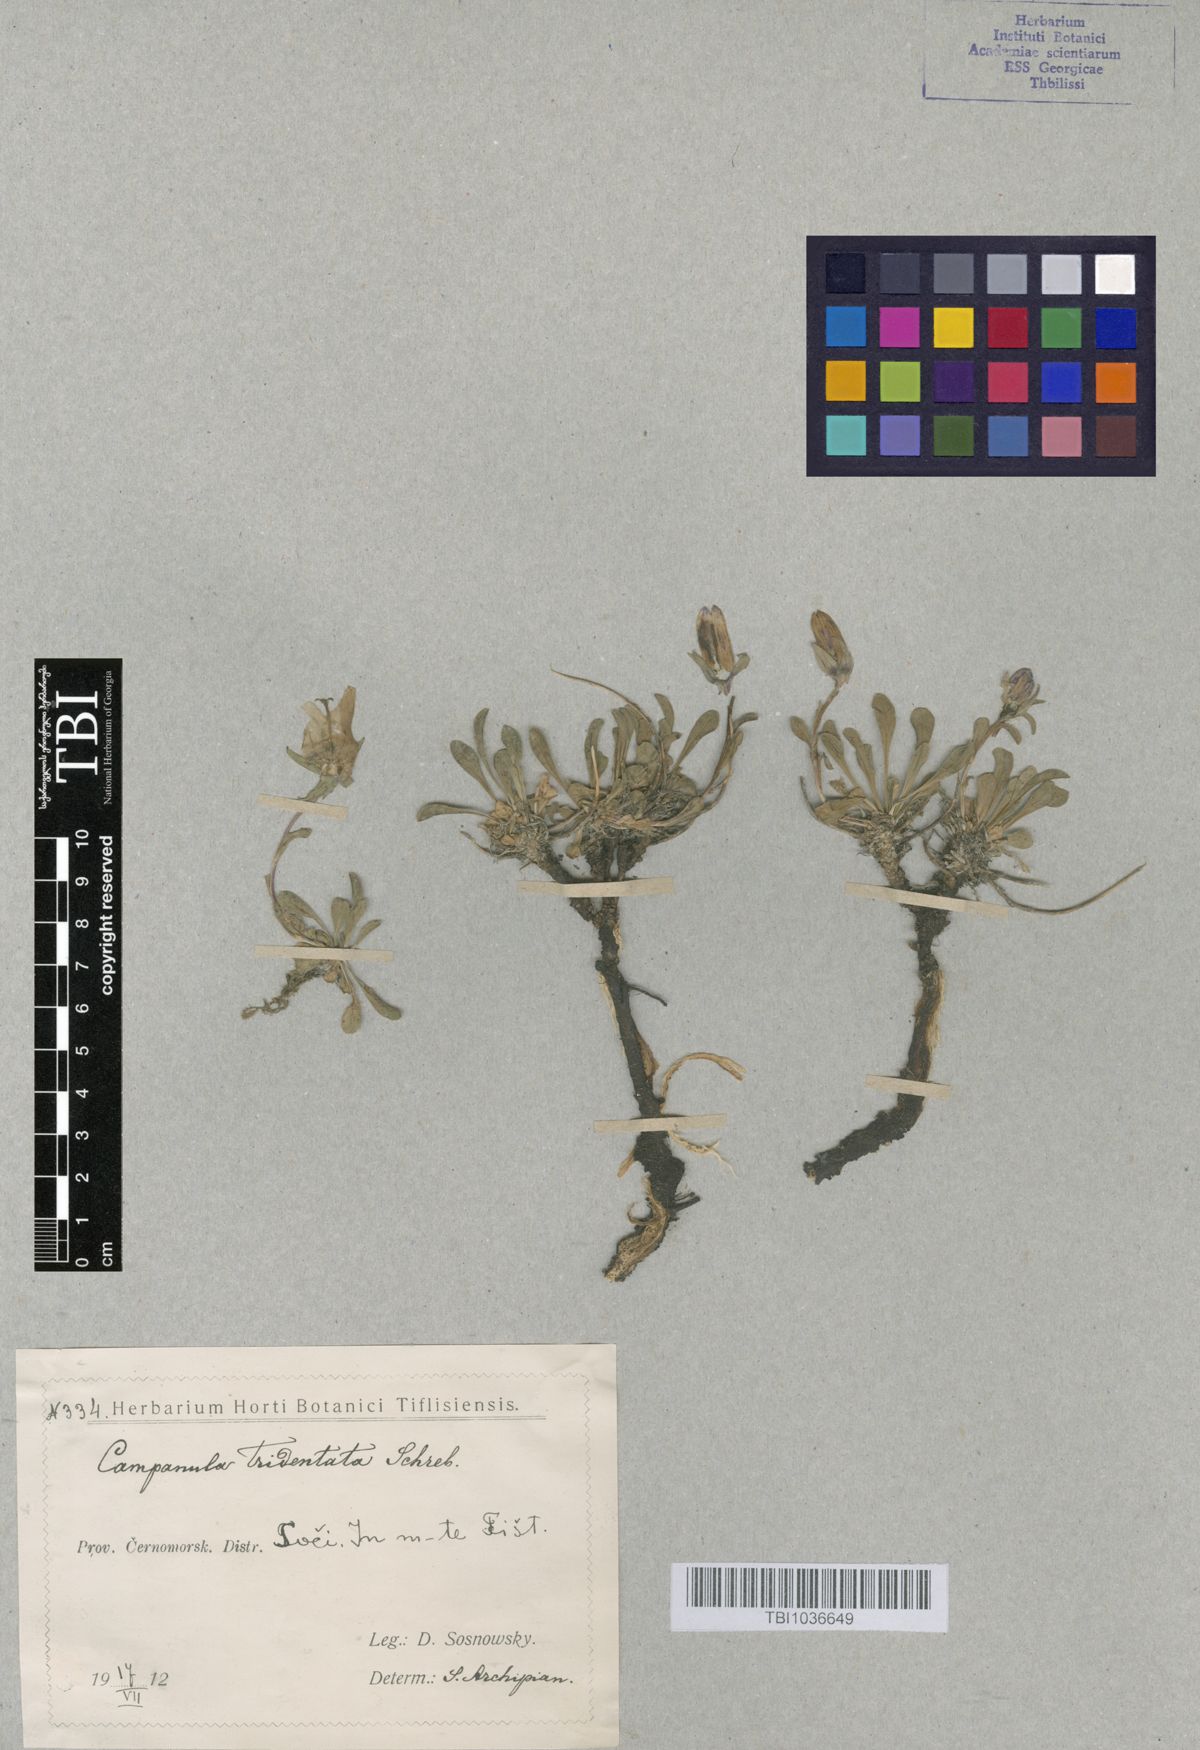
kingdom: Plantae
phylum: Tracheophyta
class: Magnoliopsida
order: Asterales
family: Campanulaceae
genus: Campanula
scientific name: Campanula tridentata
